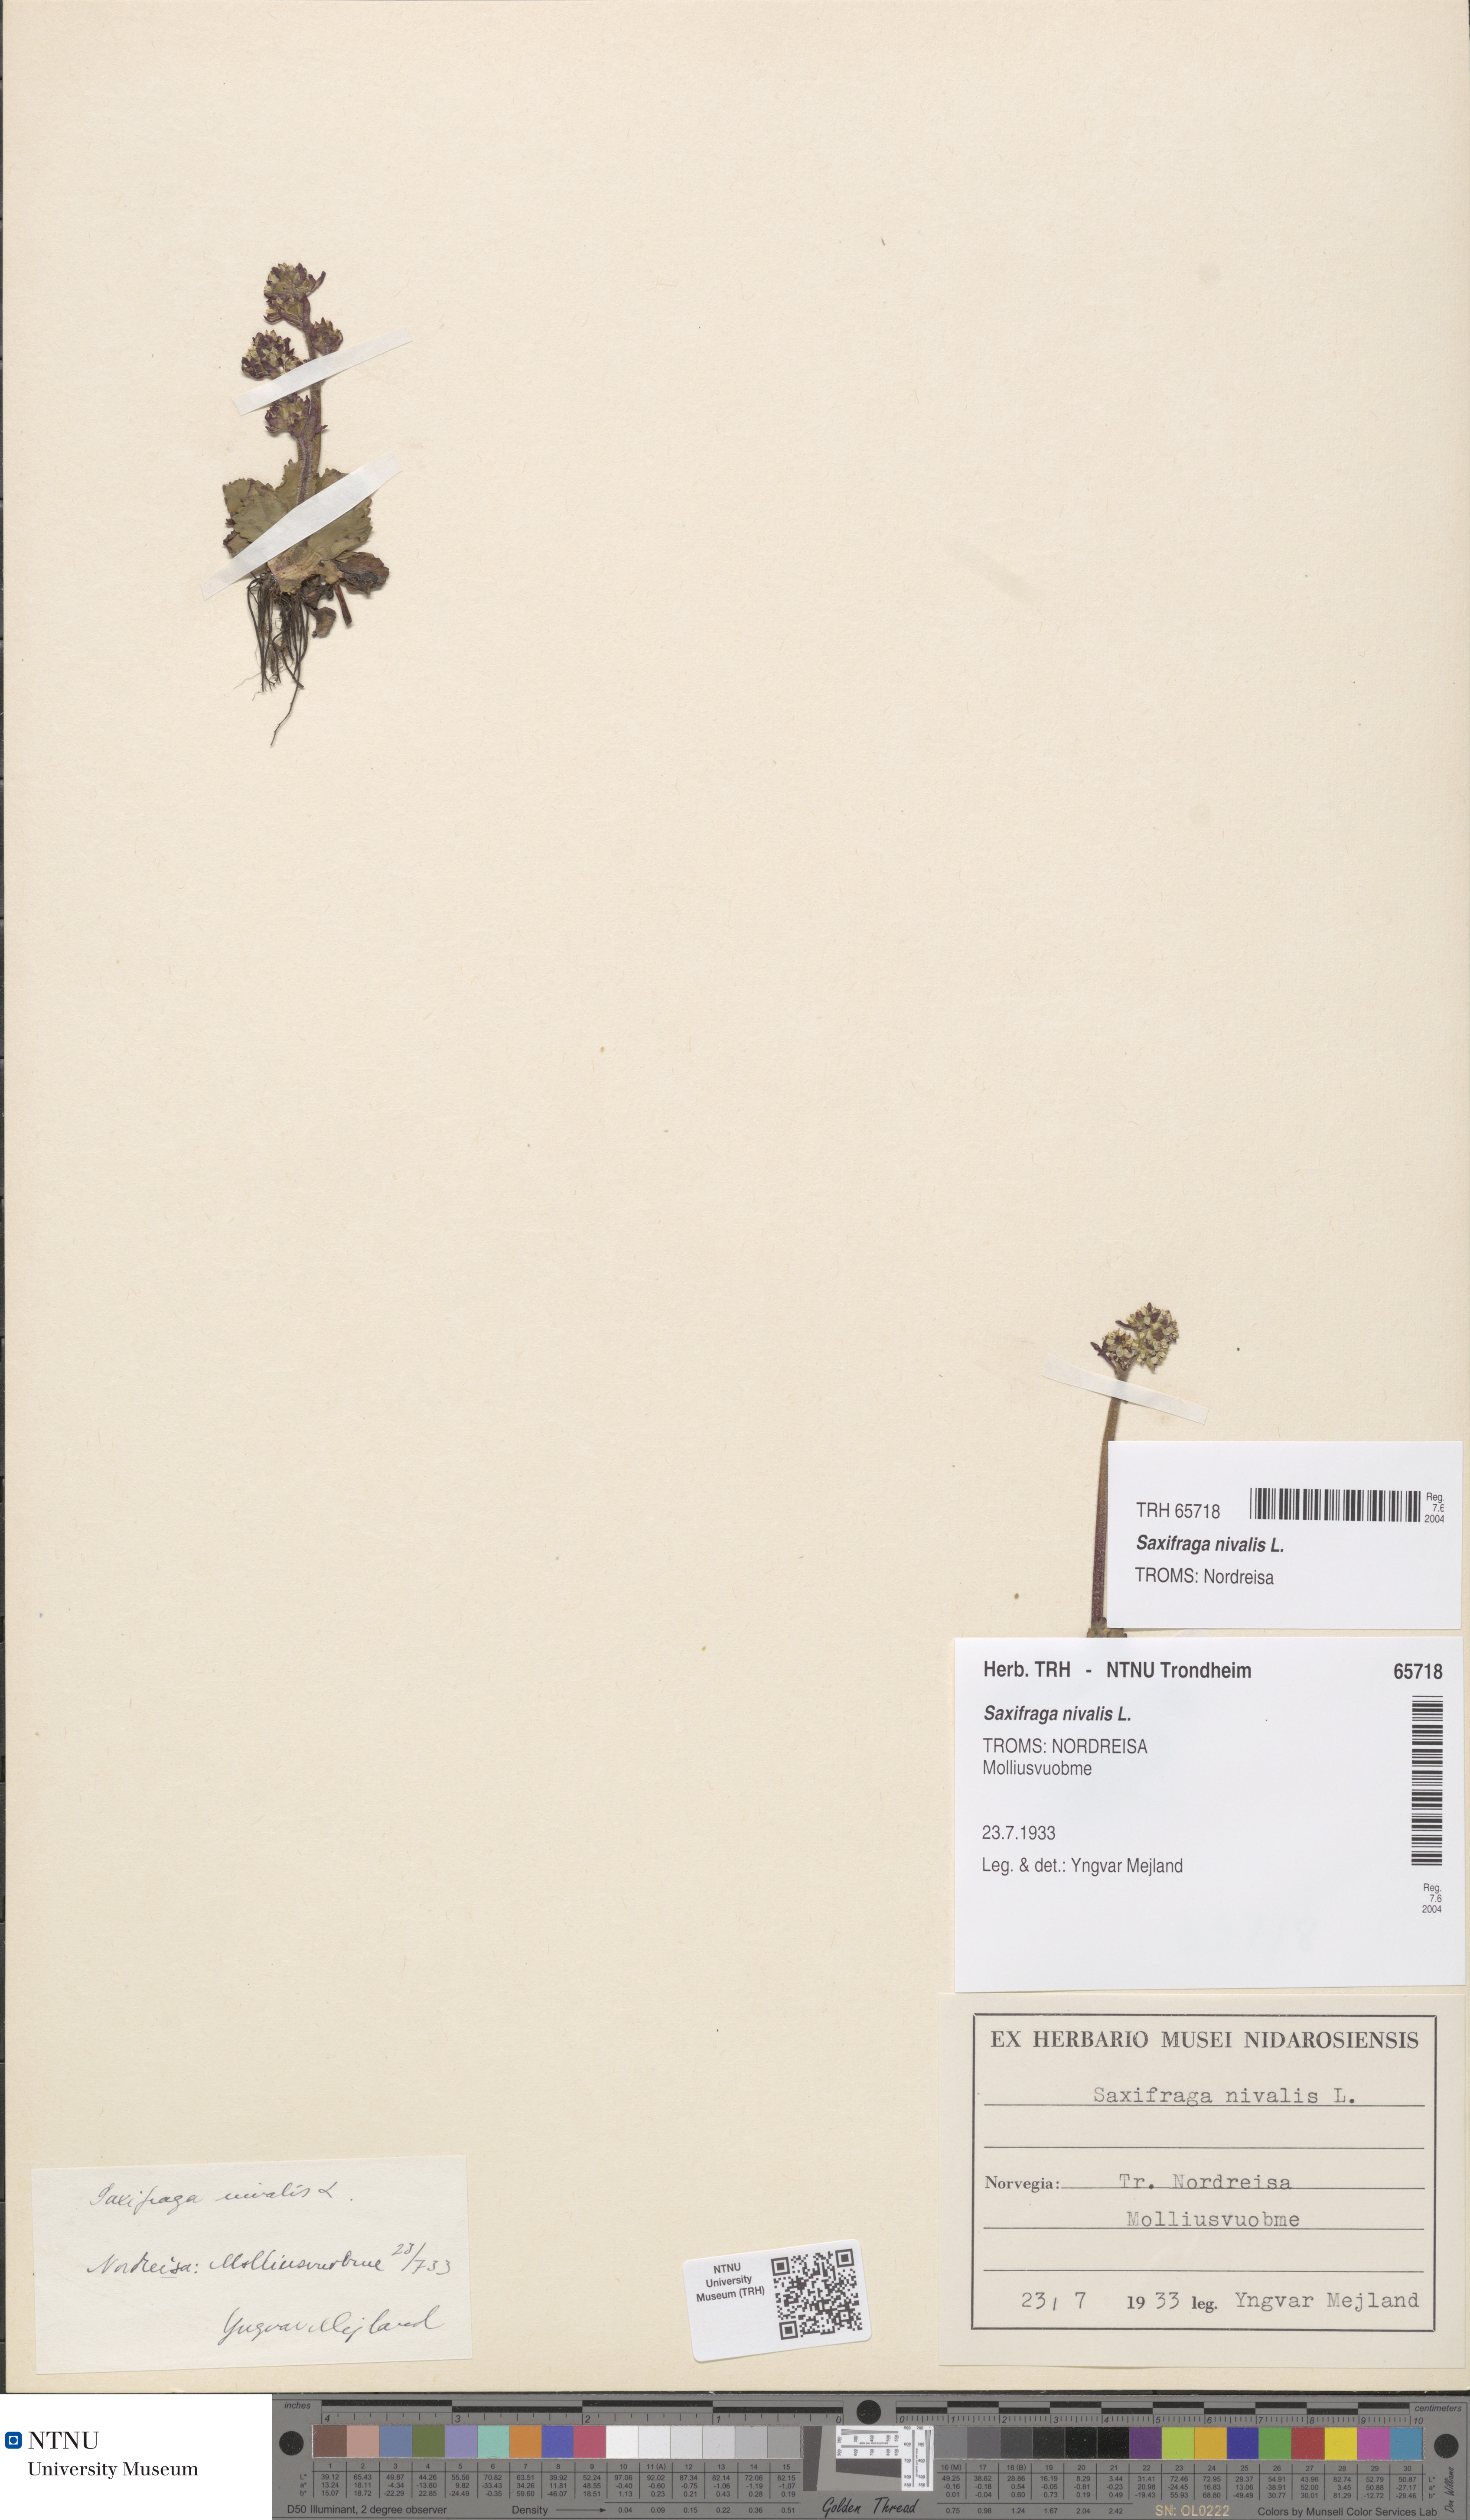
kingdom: Plantae
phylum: Tracheophyta
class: Magnoliopsida
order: Saxifragales
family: Saxifragaceae
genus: Micranthes
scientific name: Micranthes nivalis
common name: Alpine saxifrage
